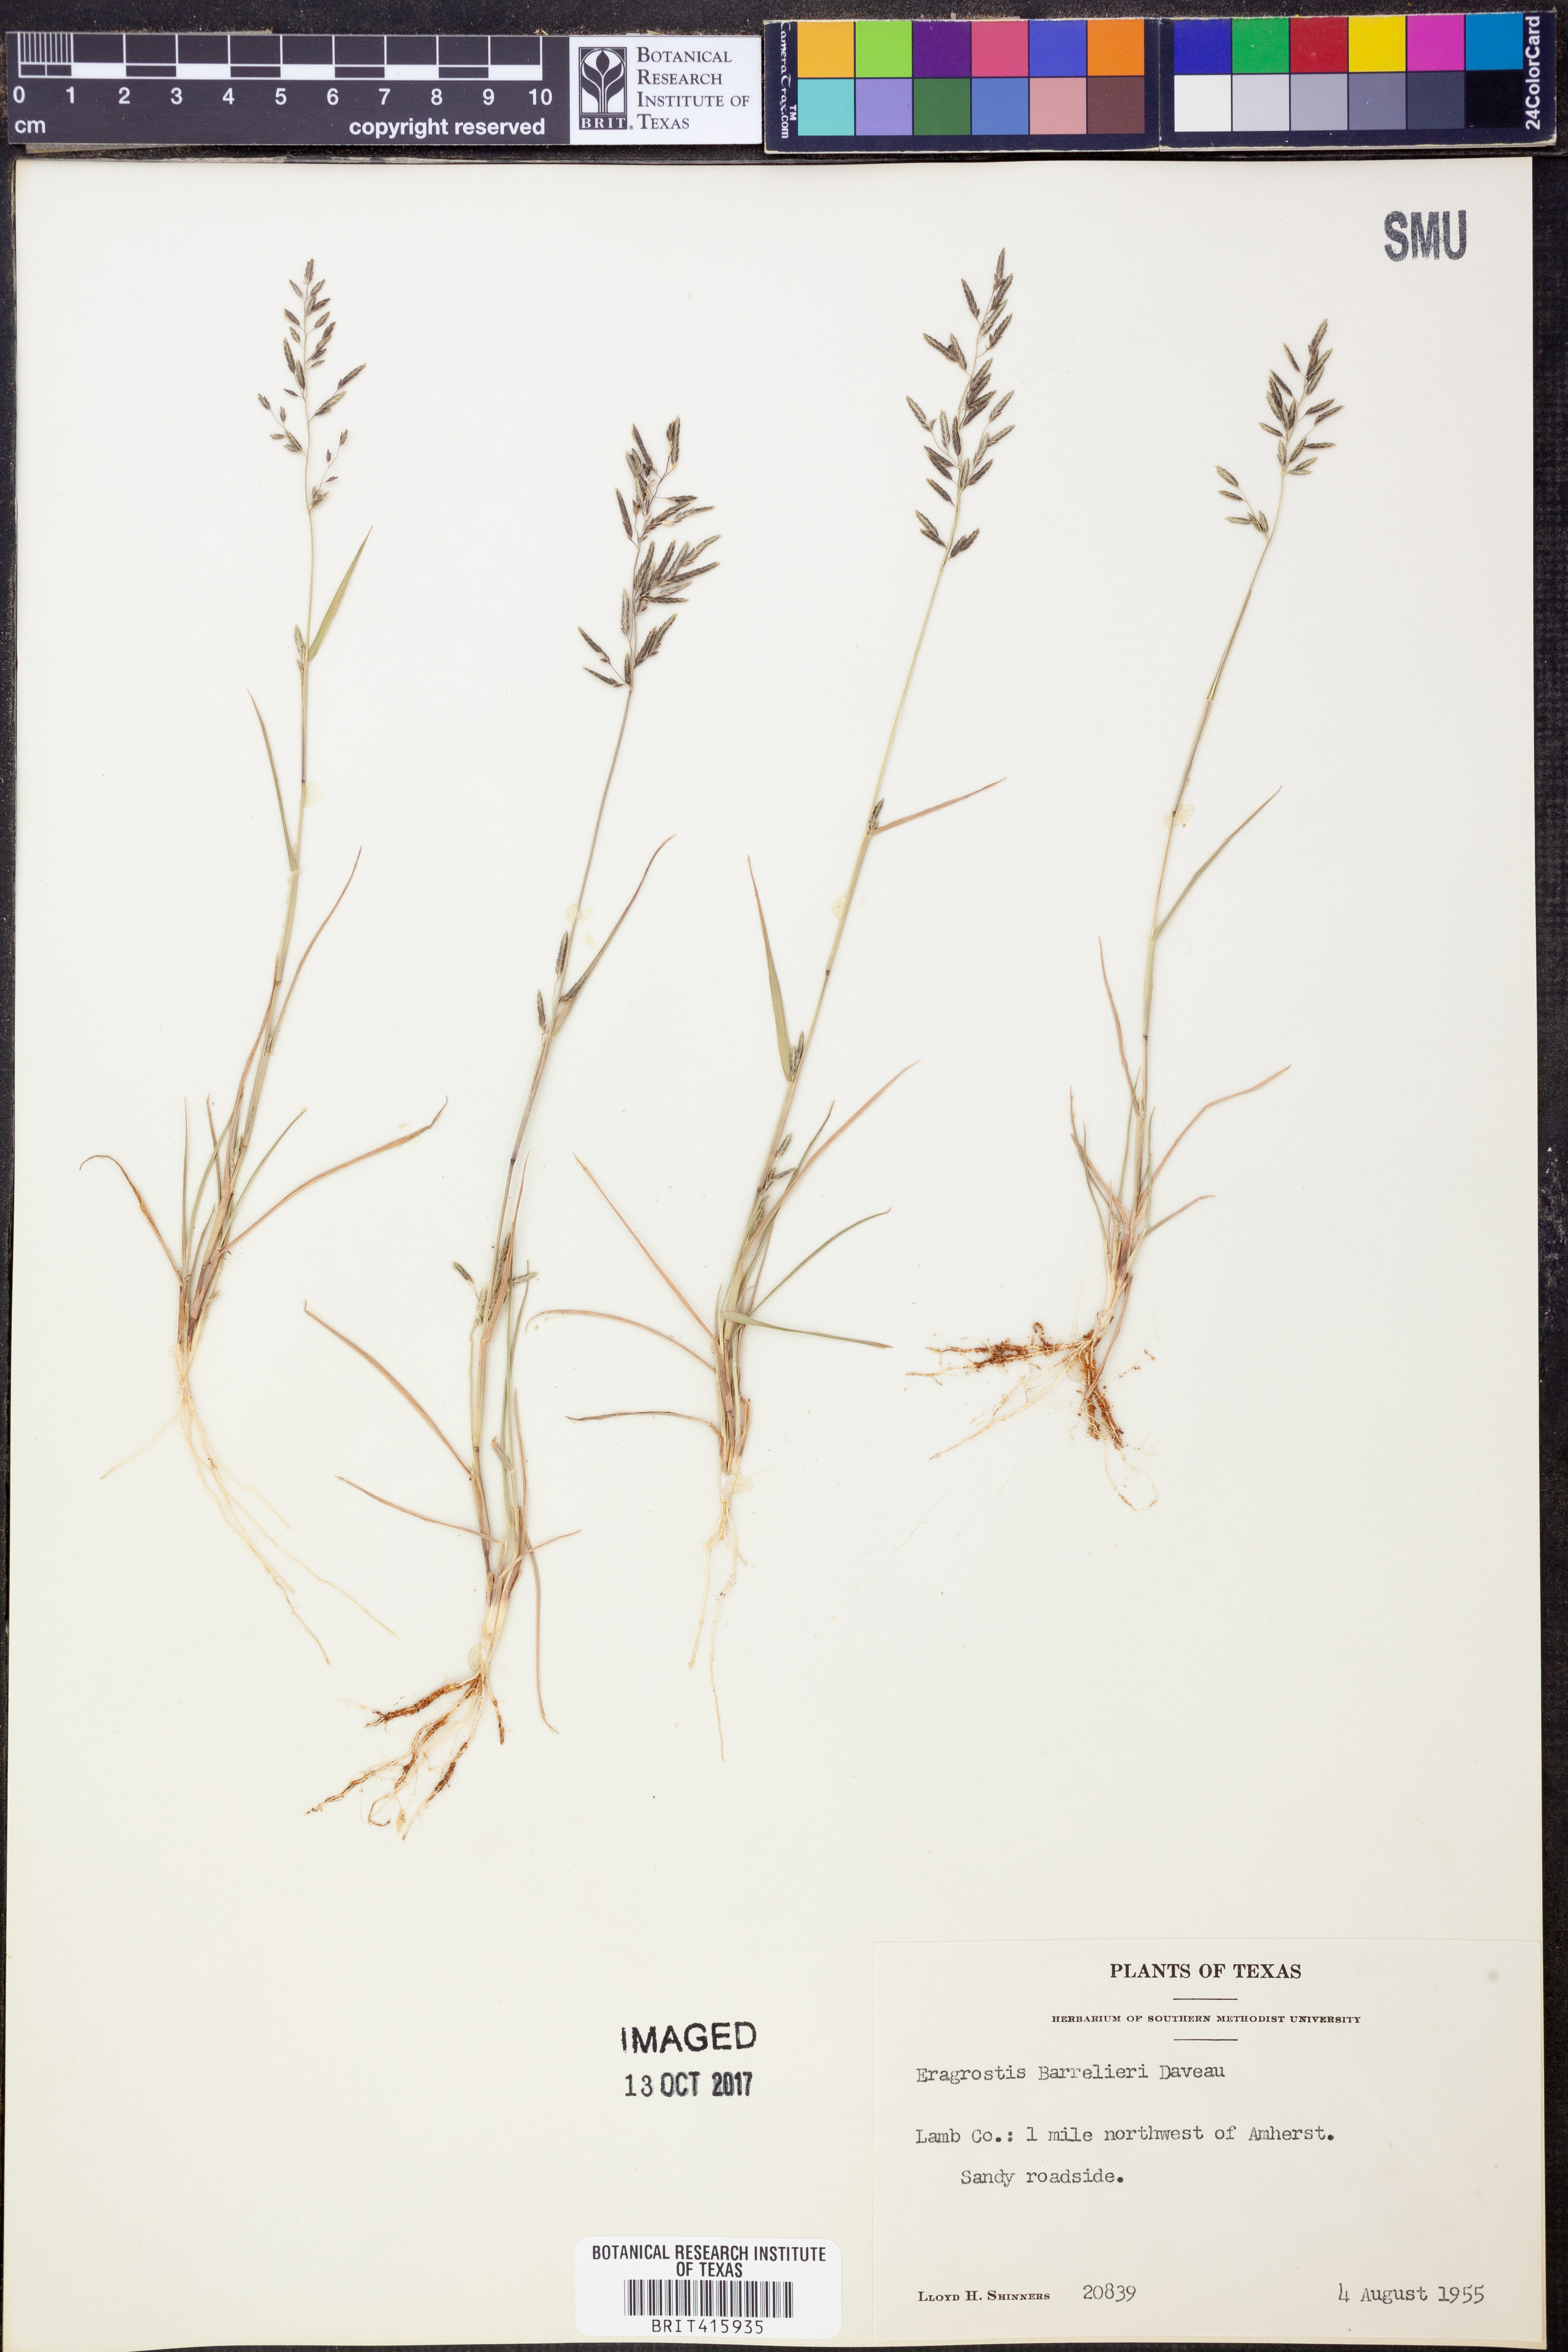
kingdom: Plantae
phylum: Tracheophyta
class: Liliopsida
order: Poales
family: Poaceae
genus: Eragrostis
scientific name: Eragrostis barrelieri
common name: Mediterranean lovegrass
